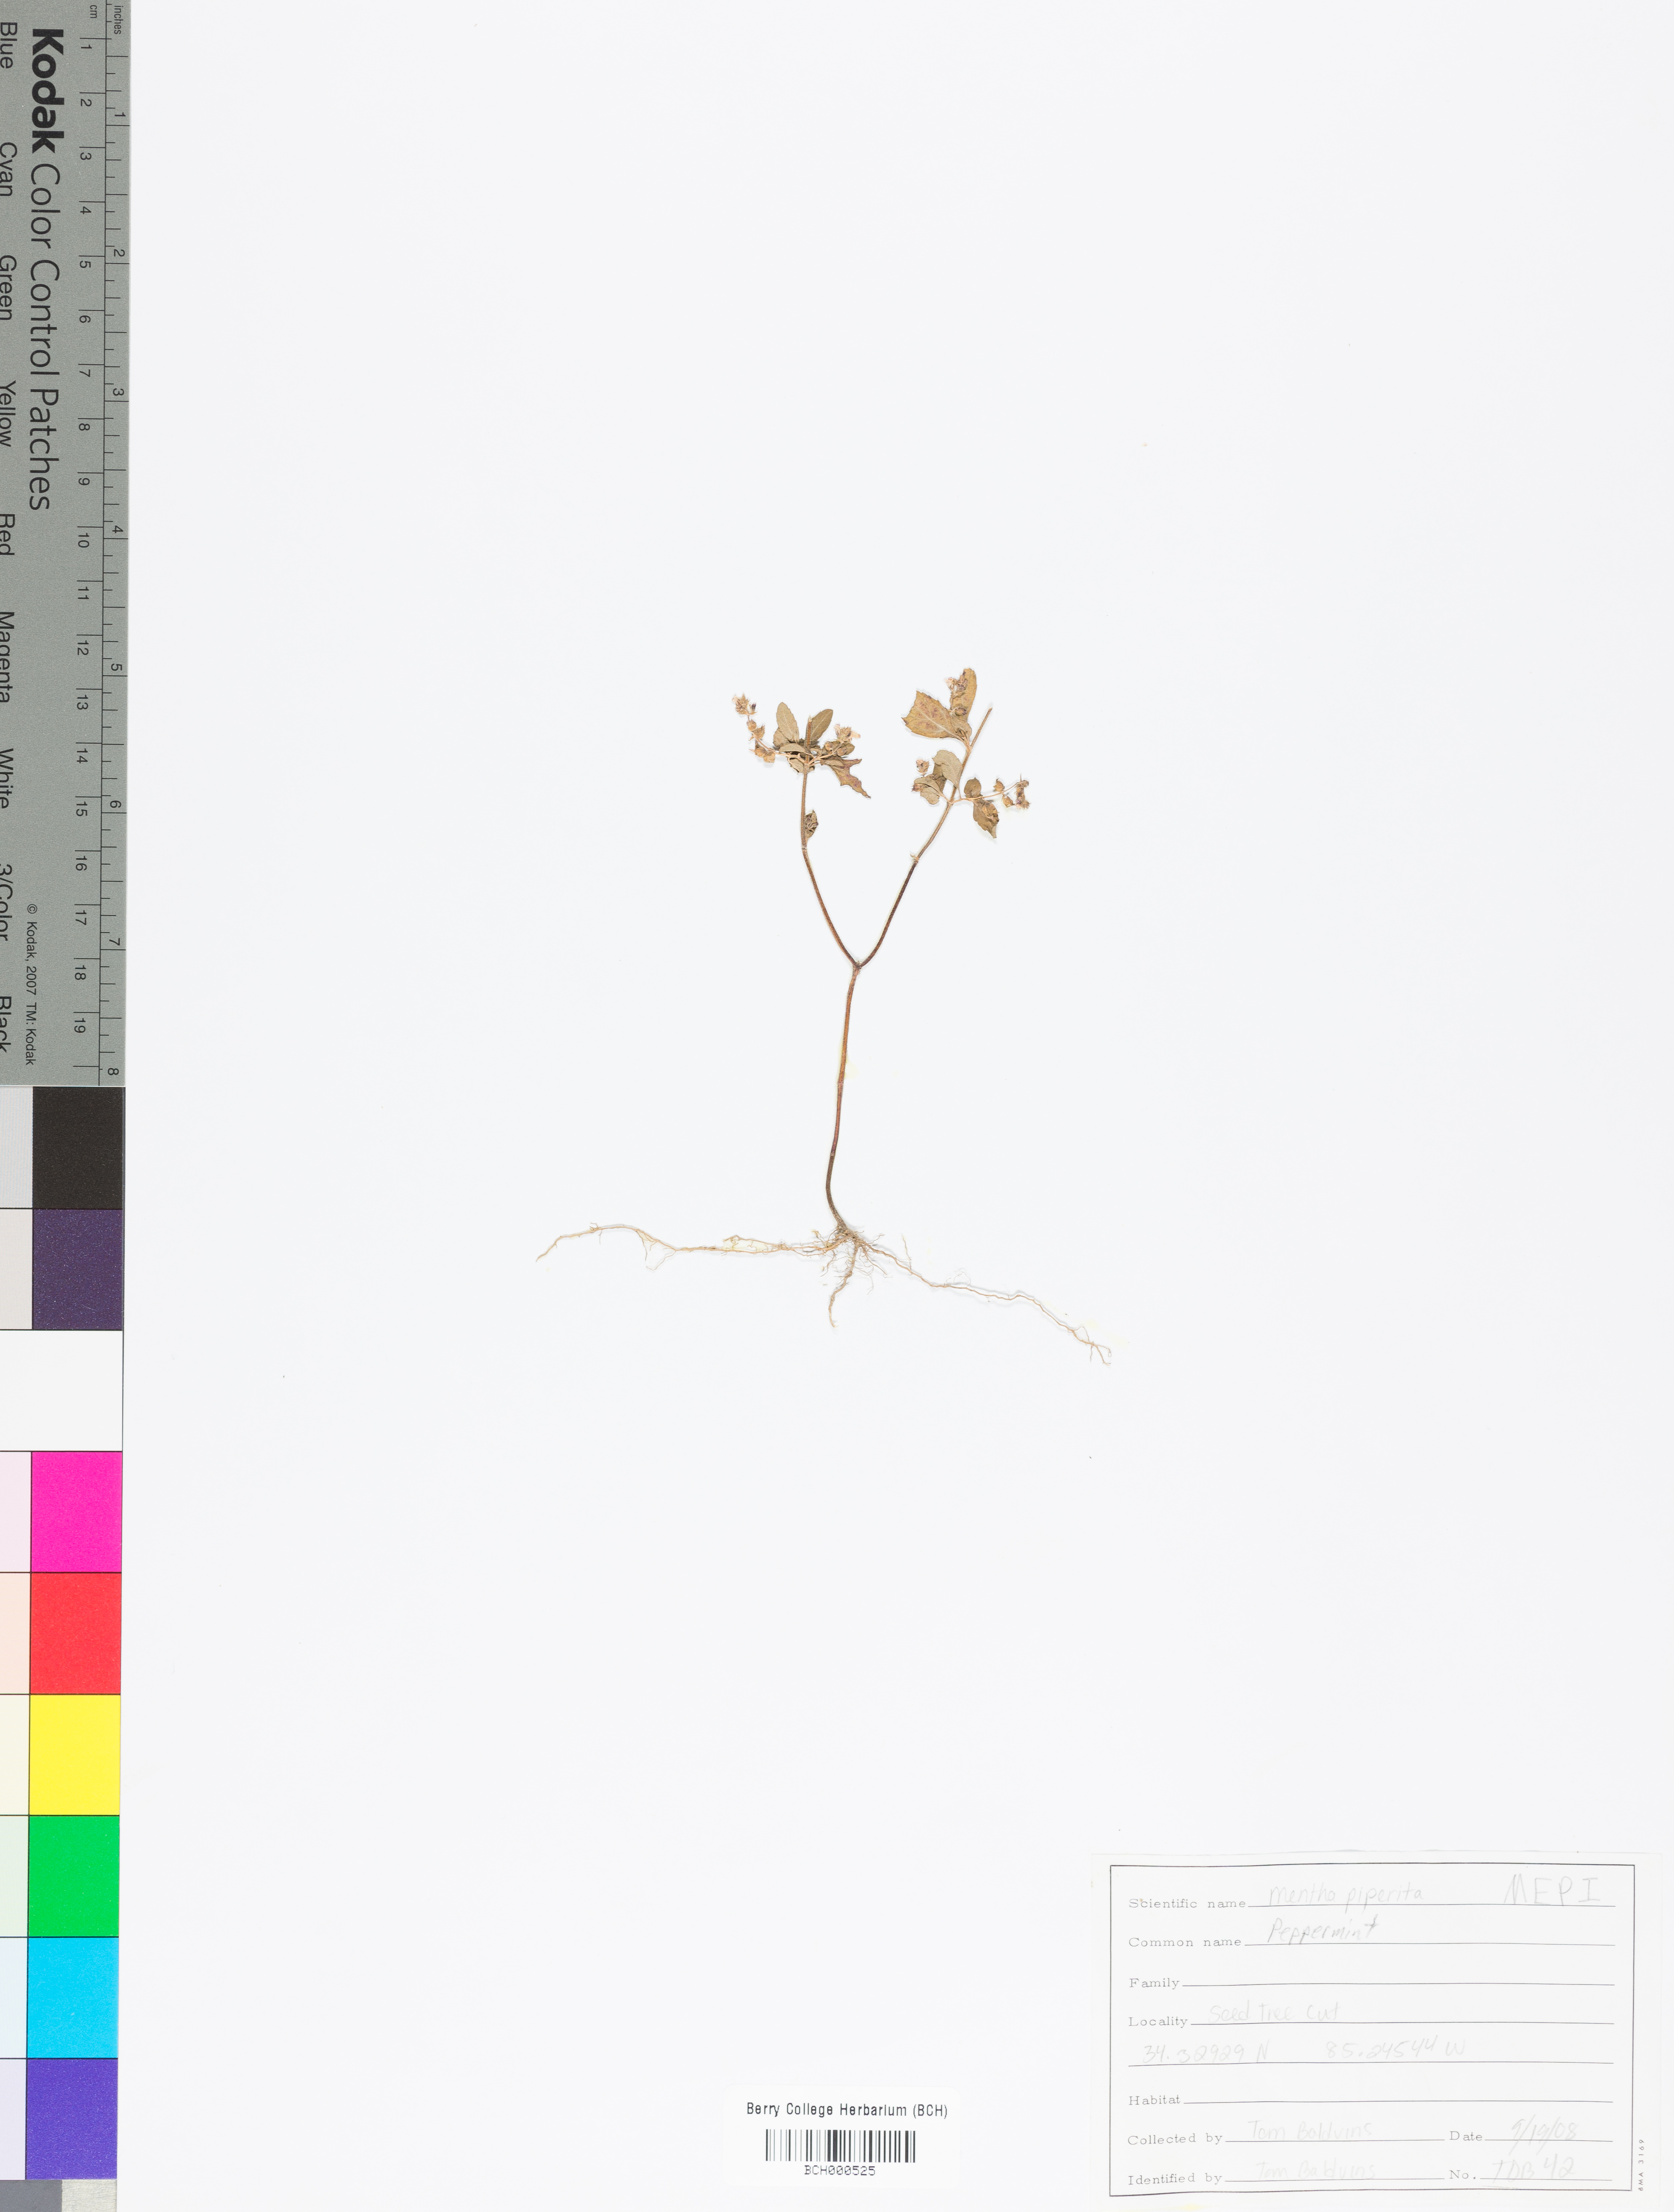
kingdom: Plantae
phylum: Tracheophyta
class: Magnoliopsida
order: Lamiales
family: Lamiaceae
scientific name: Lamiaceae
